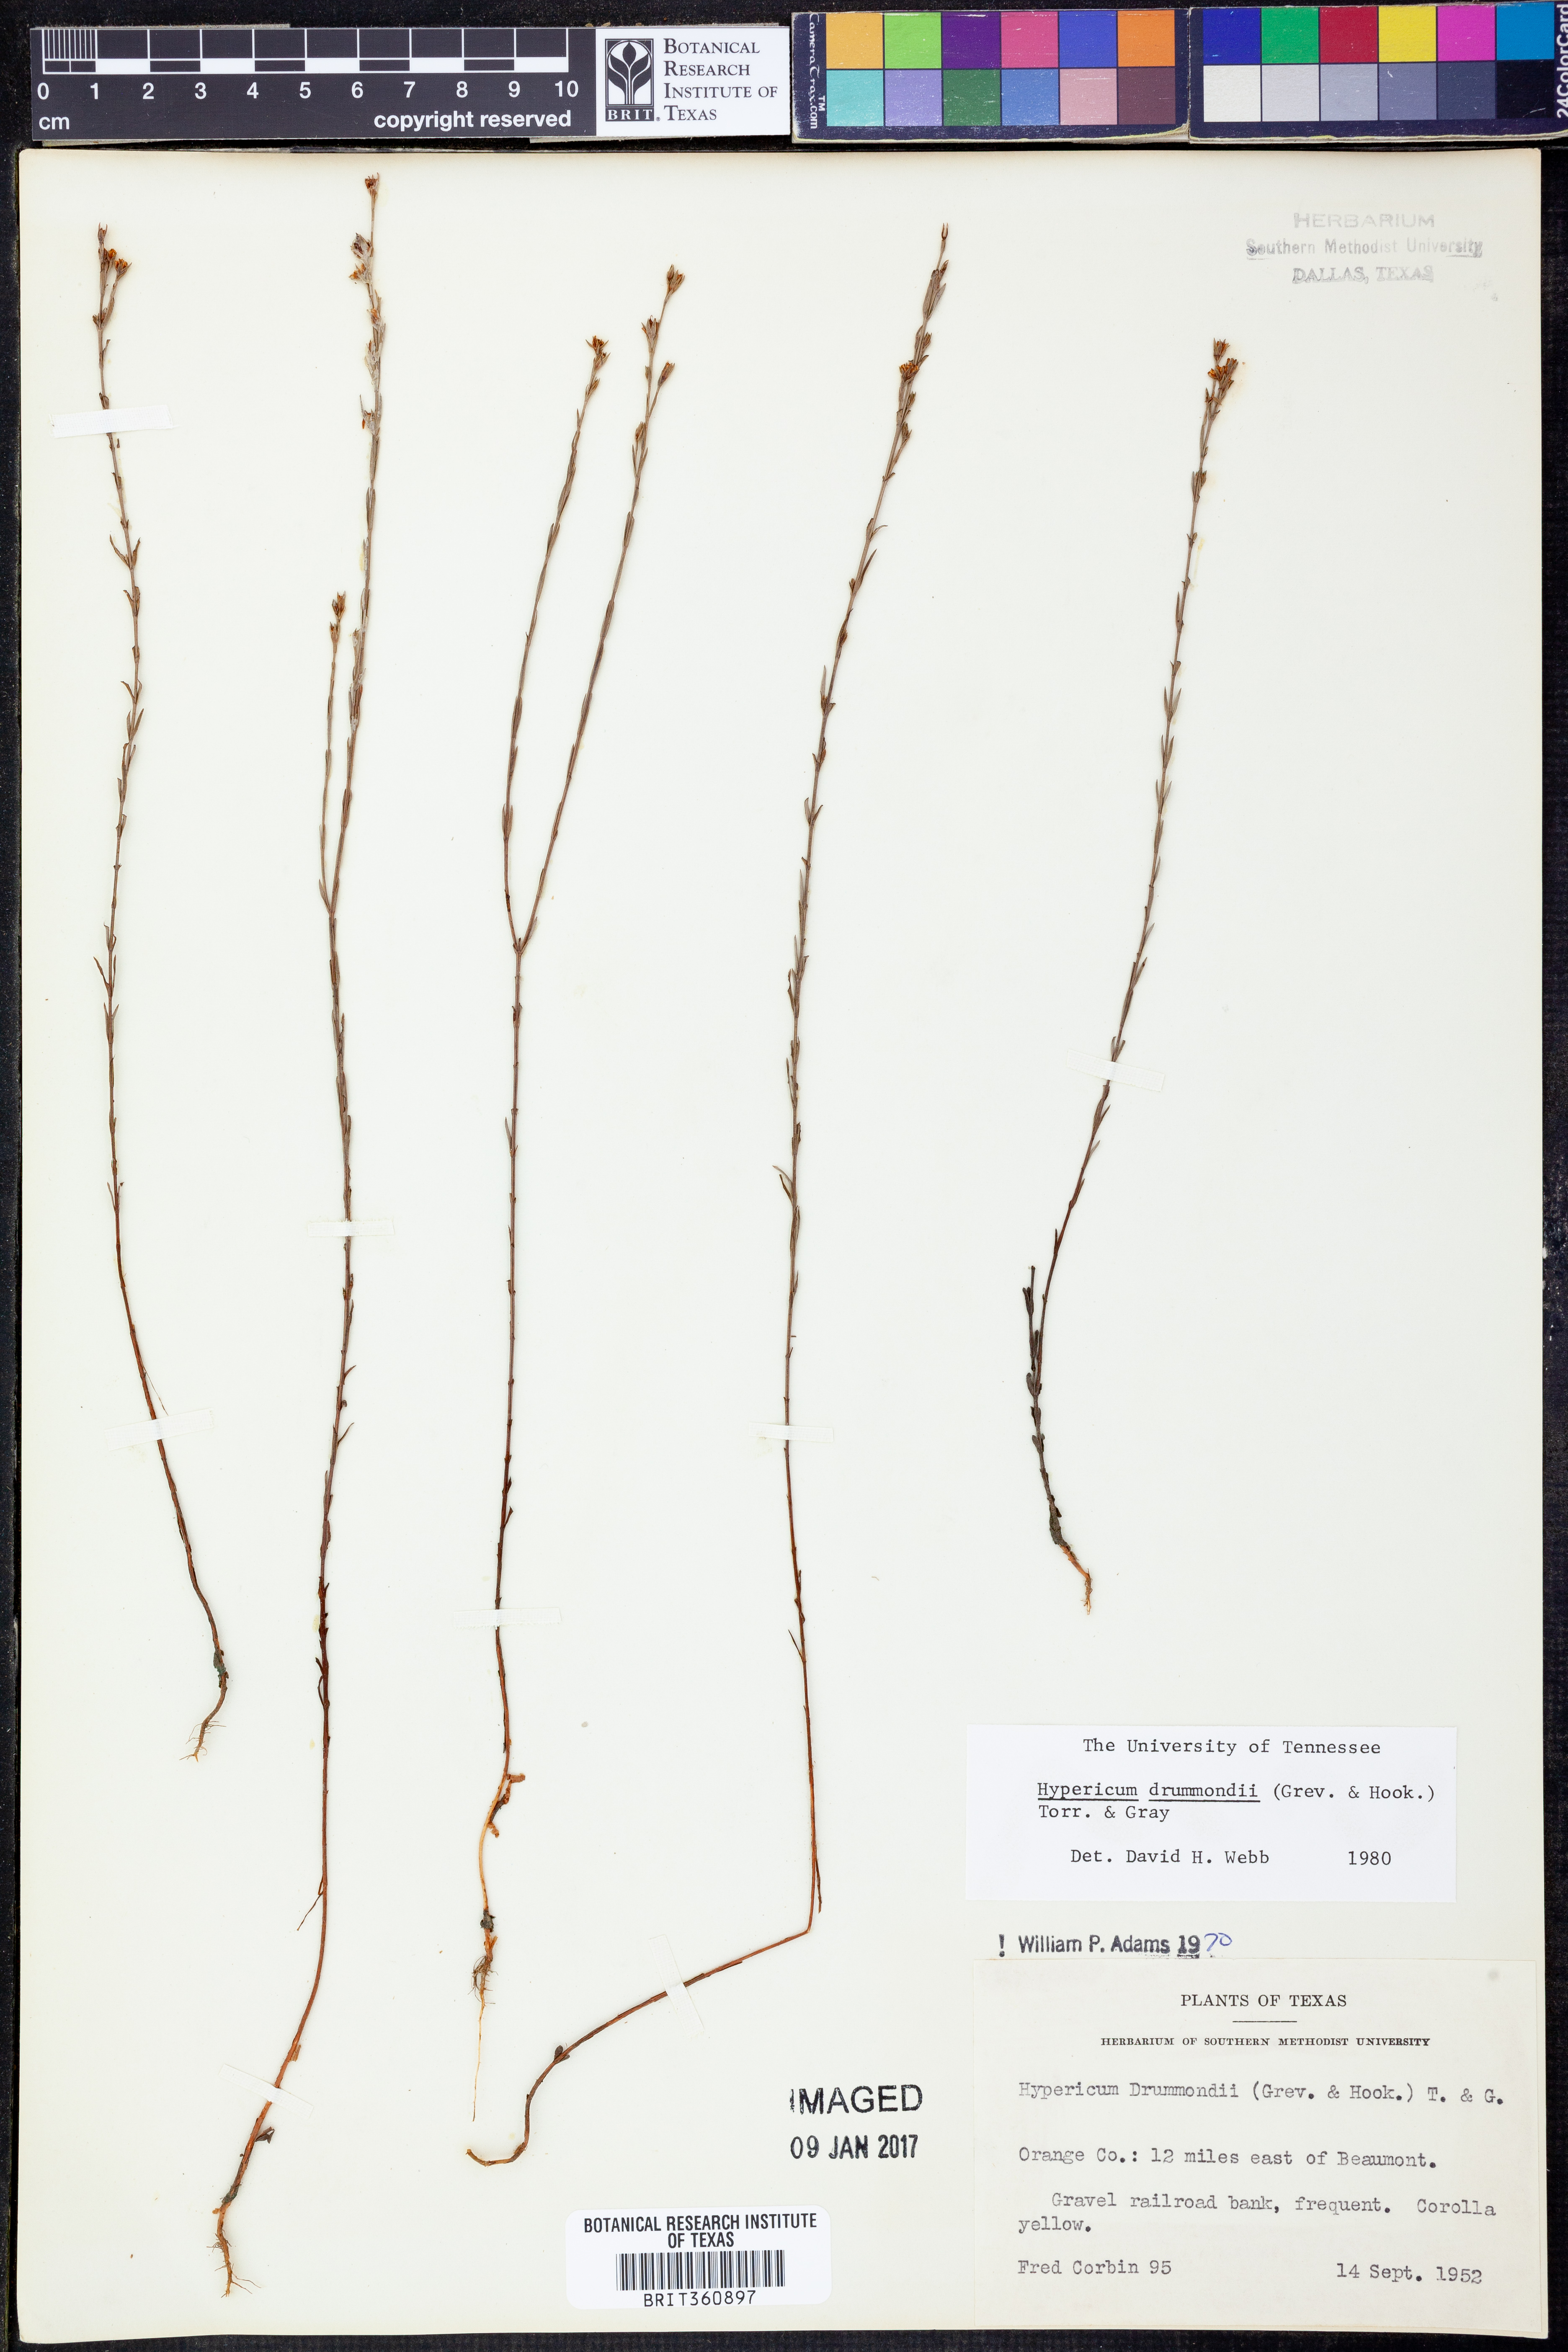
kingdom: Plantae
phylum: Tracheophyta
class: Magnoliopsida
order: Malpighiales
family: Hypericaceae
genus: Hypericum
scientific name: Hypericum drummondii
